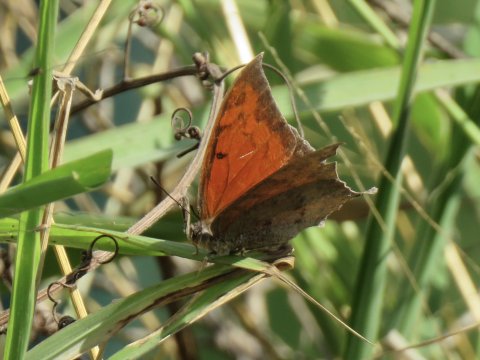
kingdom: Animalia
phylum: Arthropoda
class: Insecta
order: Lepidoptera
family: Nymphalidae
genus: Anaea
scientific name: Anaea aidea
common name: Tropical Leafwing
